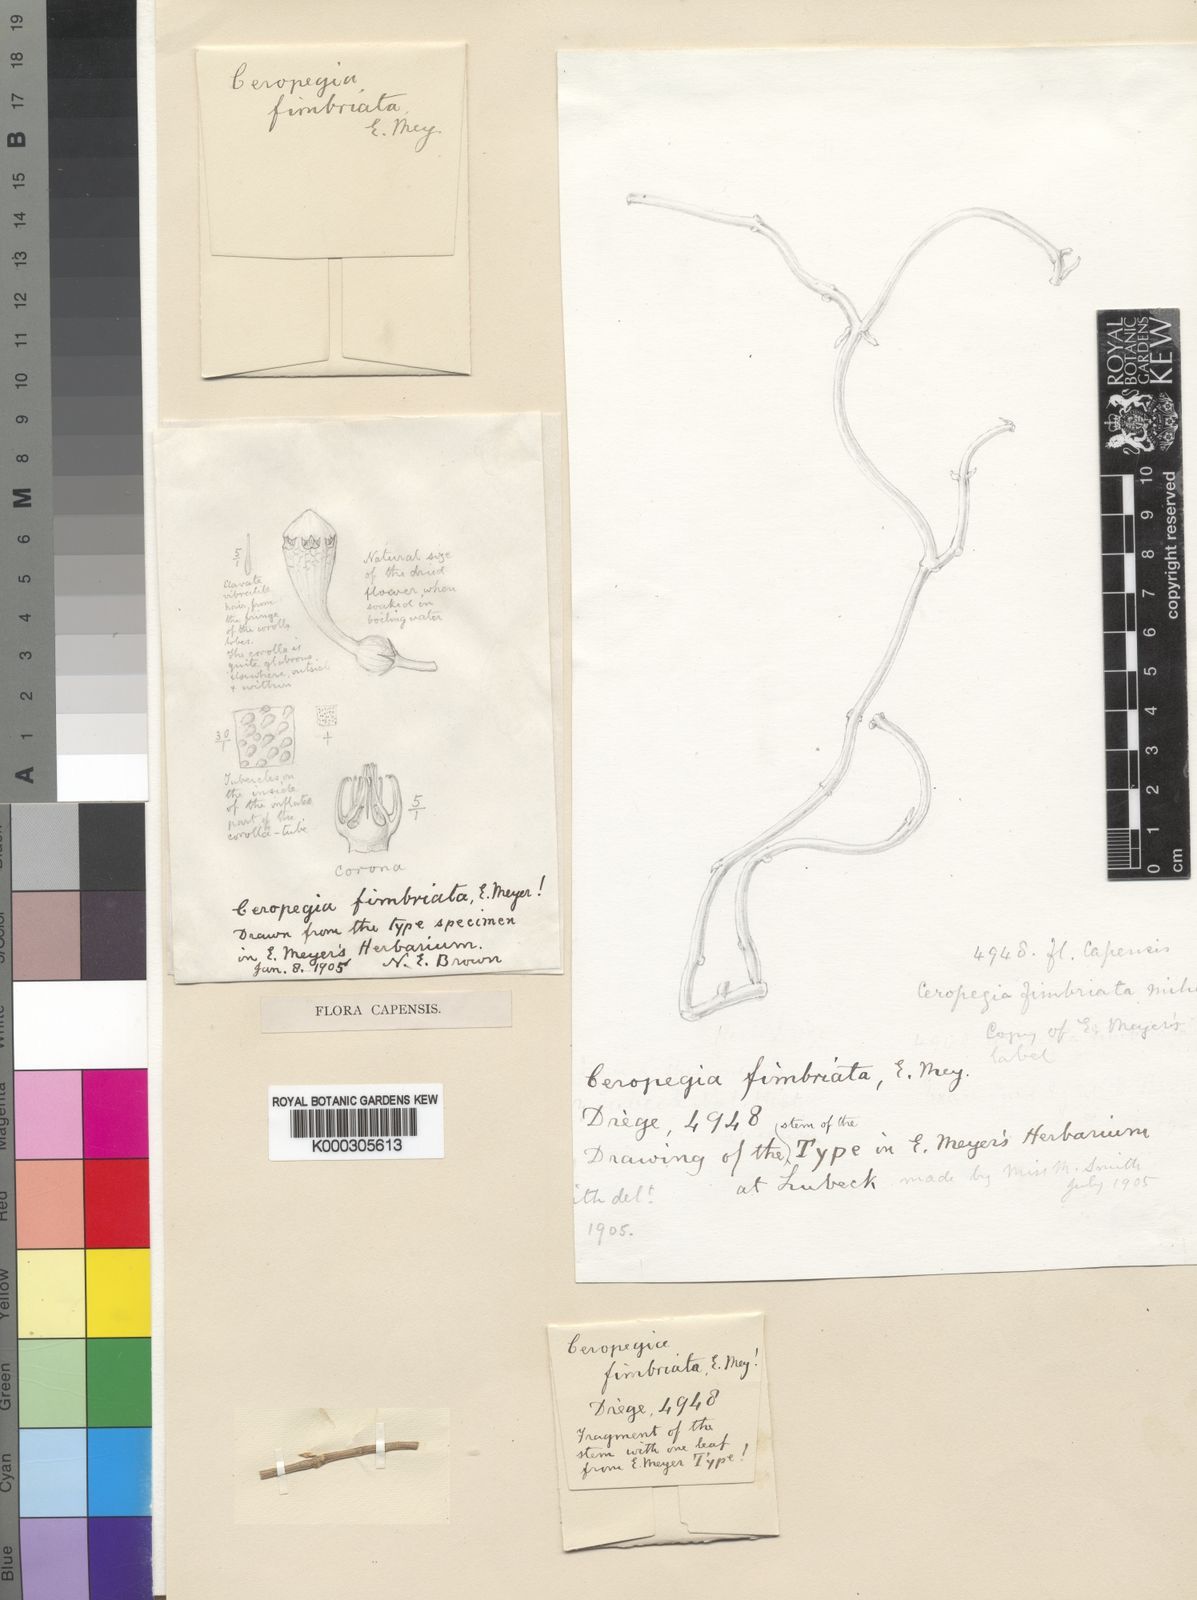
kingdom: Plantae
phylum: Tracheophyta
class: Magnoliopsida
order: Gentianales
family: Apocynaceae
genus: Ceropegia
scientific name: Ceropegia fimbriata
